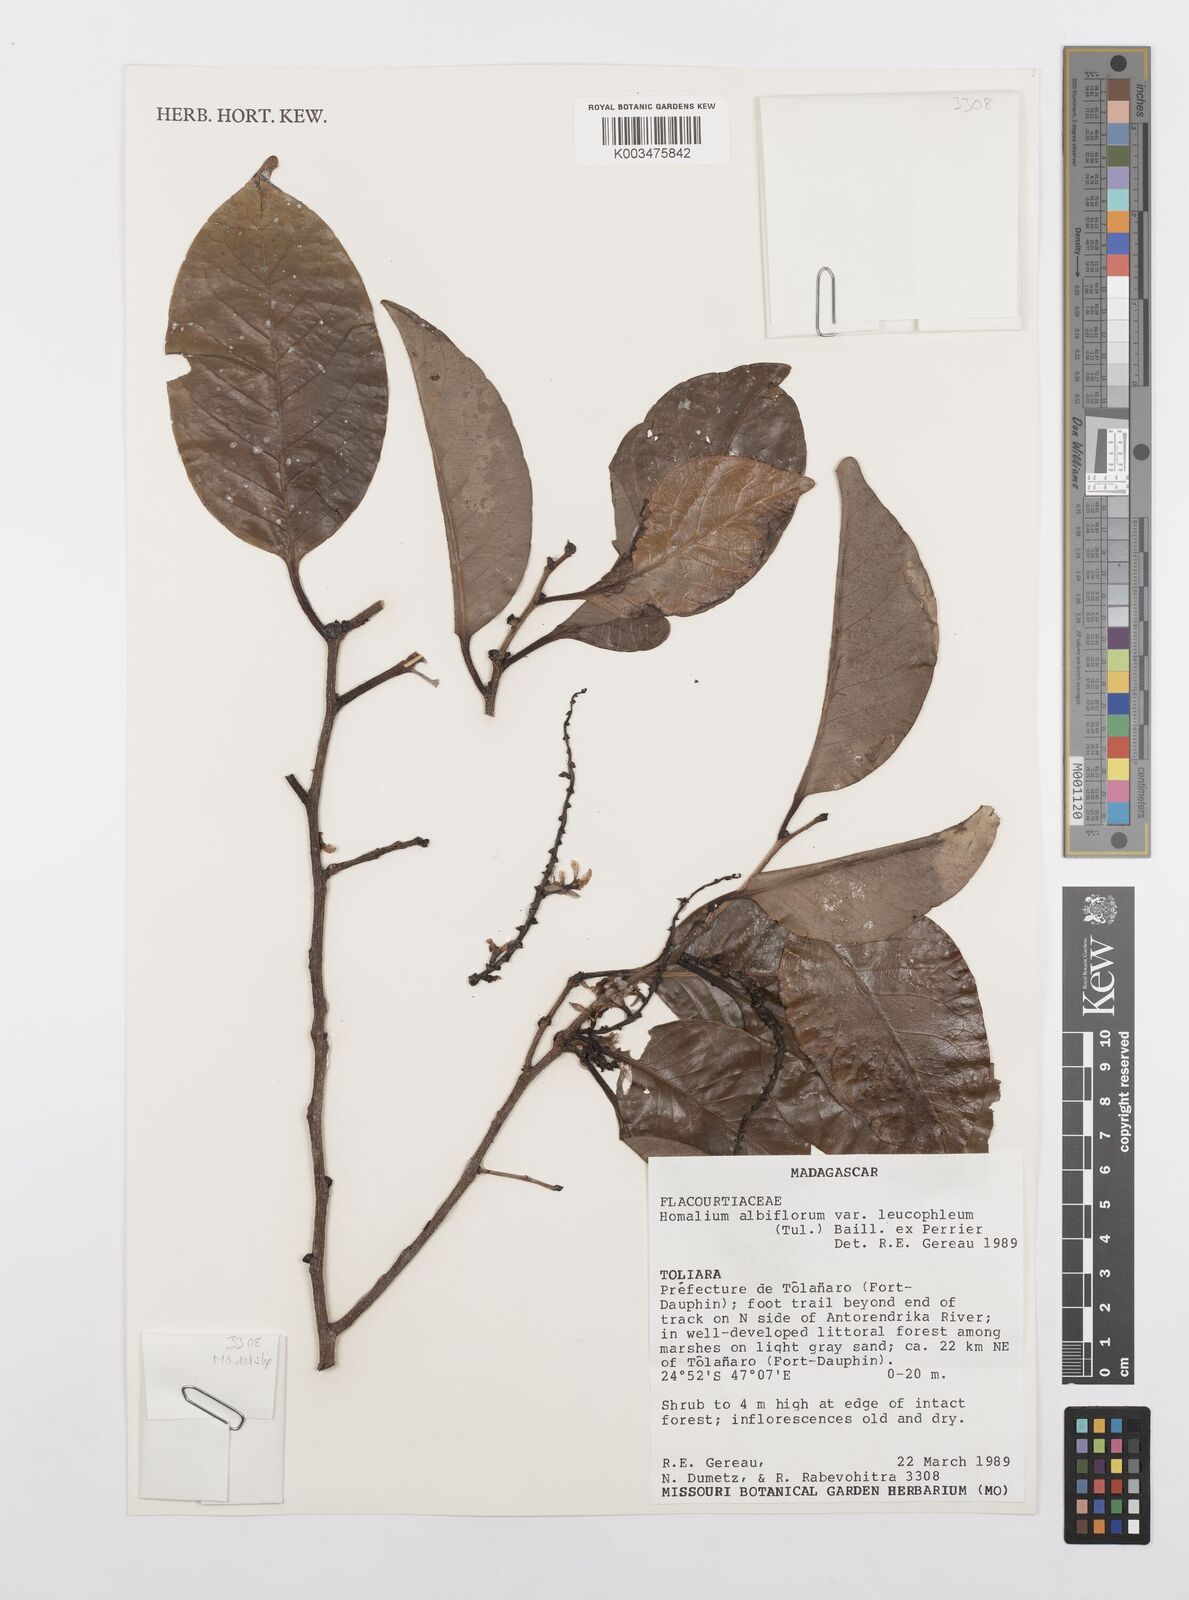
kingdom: Plantae
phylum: Tracheophyta
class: Magnoliopsida
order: Malpighiales
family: Salicaceae
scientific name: Salicaceae
